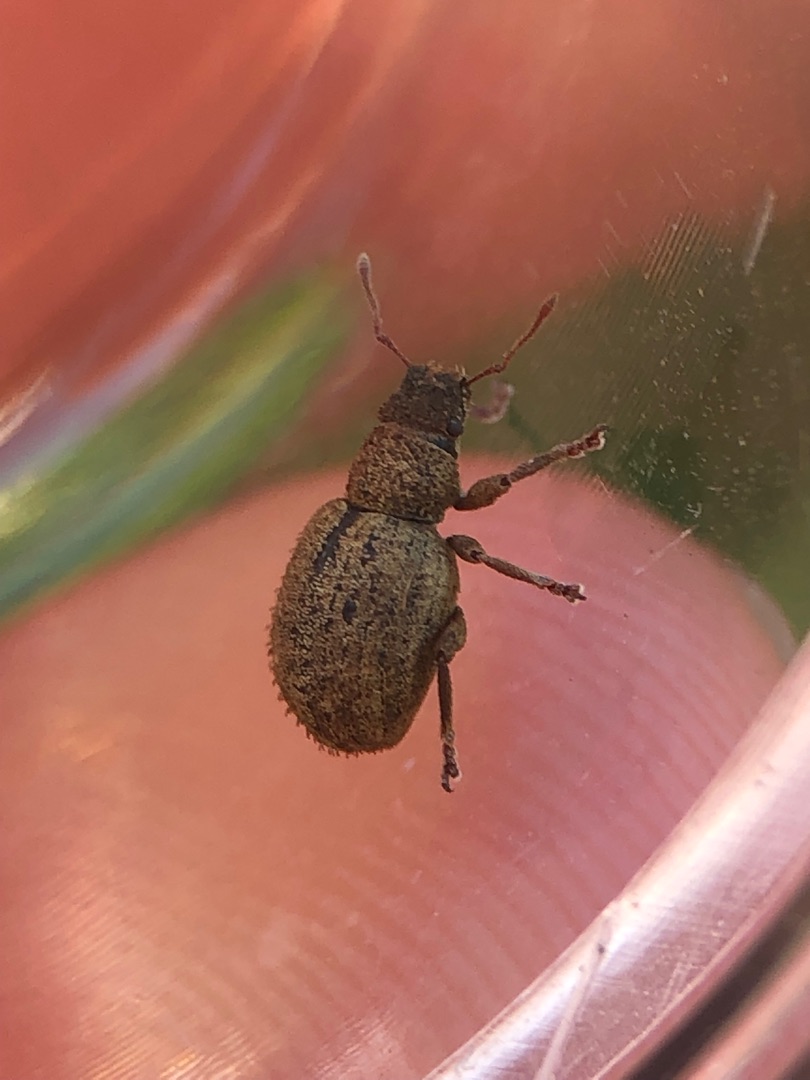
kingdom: Animalia
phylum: Arthropoda
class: Insecta
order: Coleoptera
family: Curculionidae
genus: Strophosoma
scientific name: Strophosoma melanogrammum
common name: Stribet gråsnude
